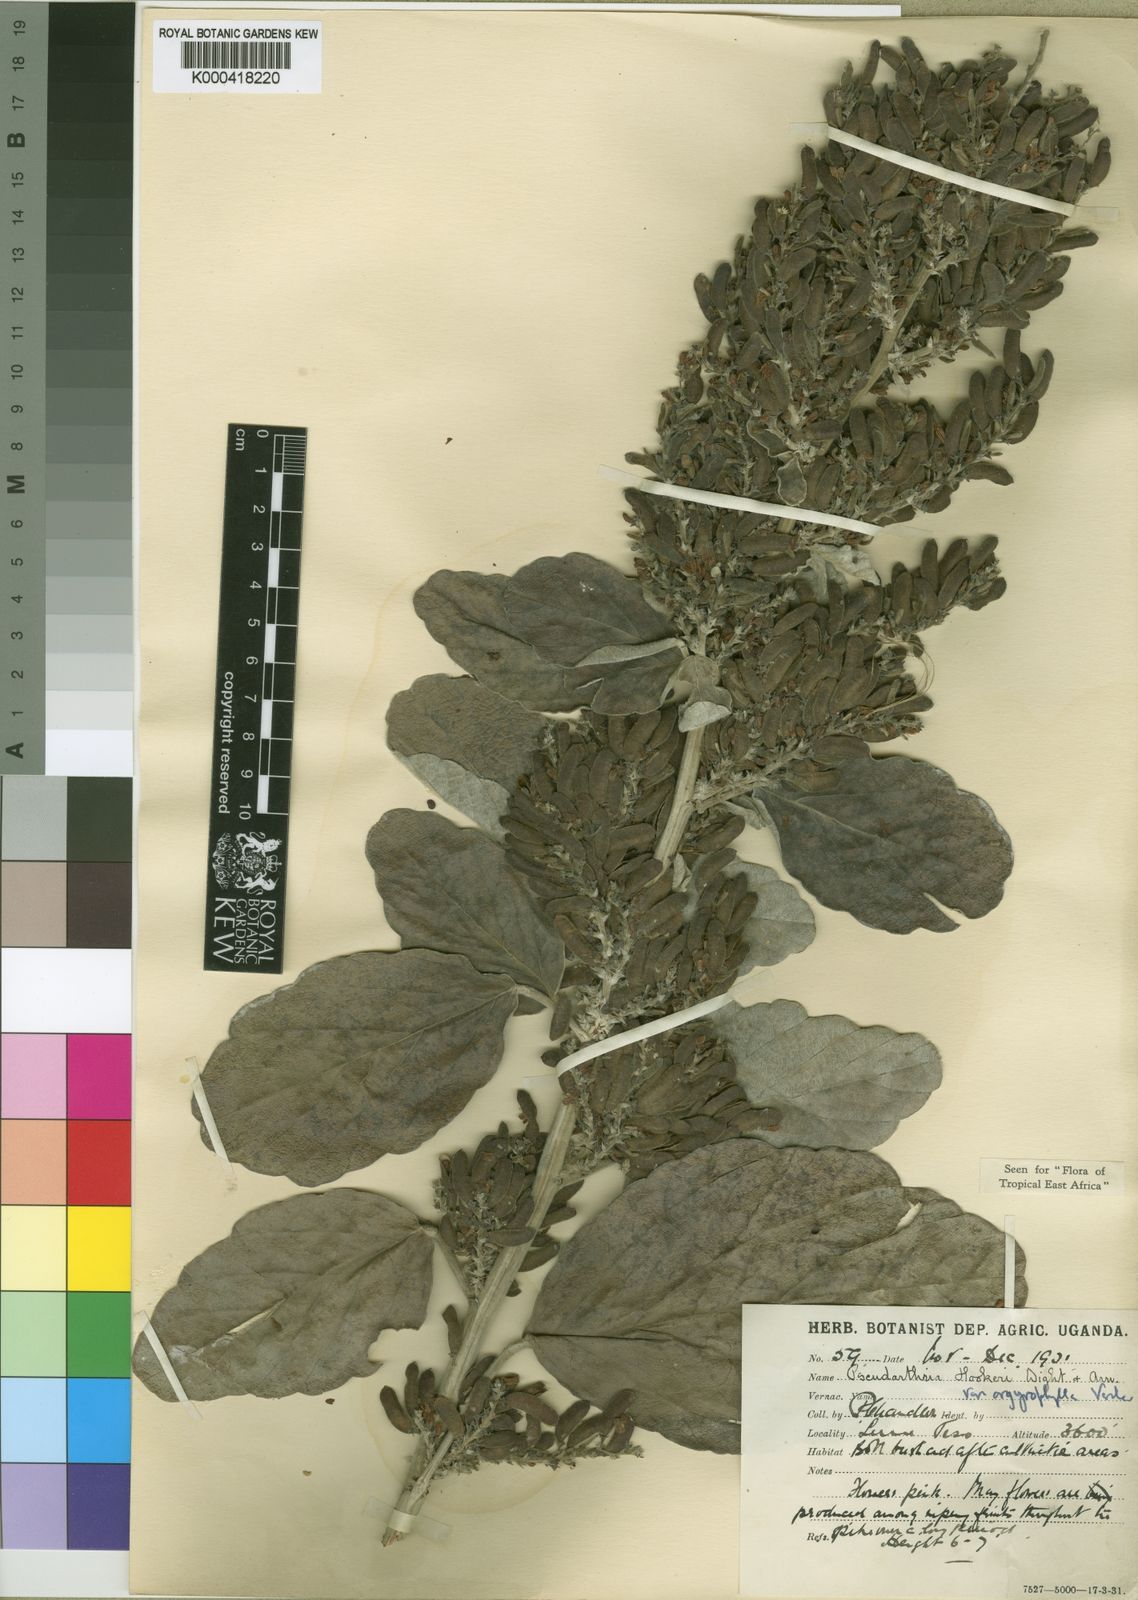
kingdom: Plantae
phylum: Tracheophyta
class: Magnoliopsida
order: Fabales
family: Fabaceae
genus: Pseudarthria
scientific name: Pseudarthria hookeri
